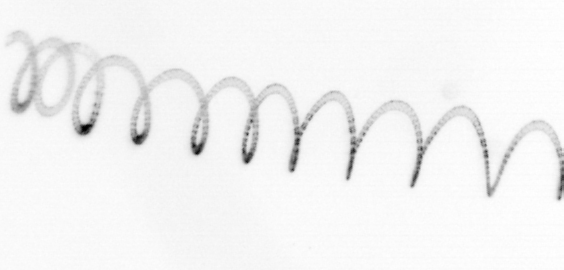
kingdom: Chromista
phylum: Ochrophyta
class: Bacillariophyceae
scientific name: Bacillariophyceae
